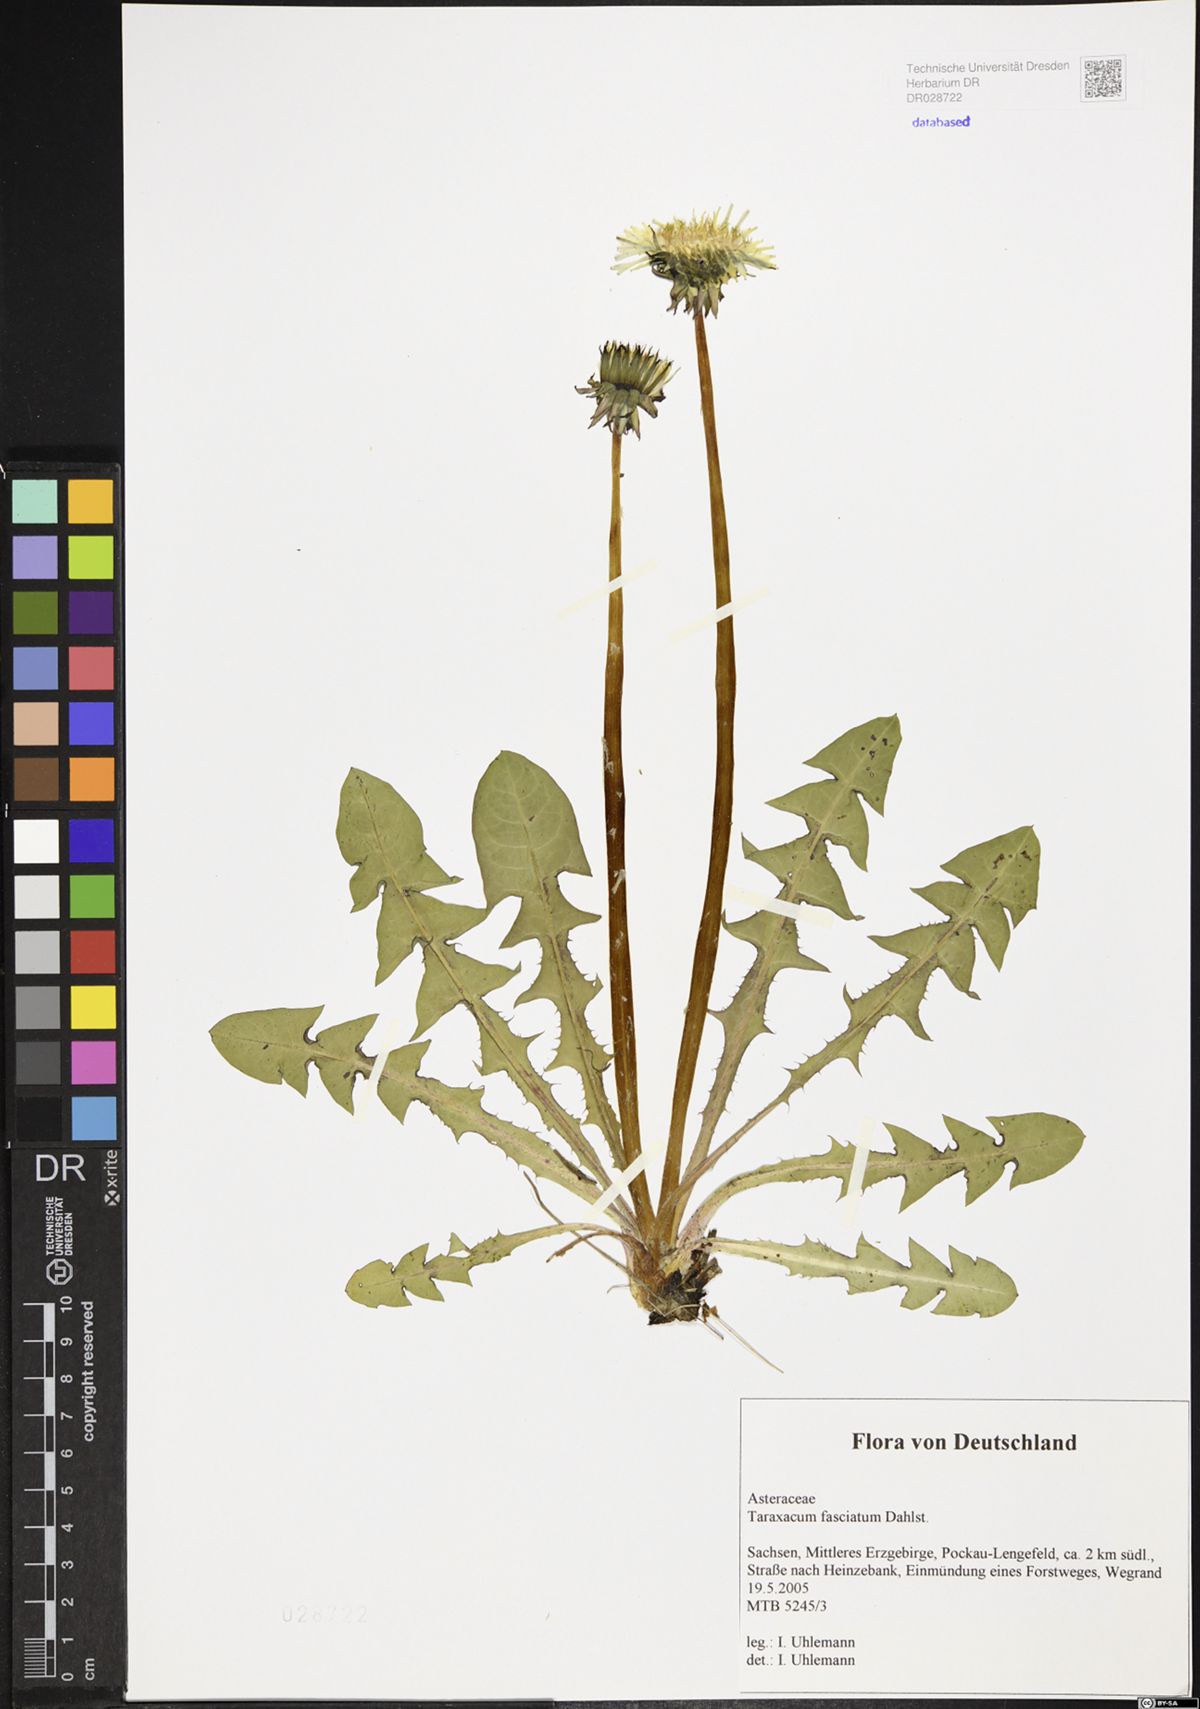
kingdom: Plantae
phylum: Tracheophyta
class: Magnoliopsida
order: Asterales
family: Asteraceae
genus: Taraxacum
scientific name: Taraxacum fasciatum
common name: Dense-bracted dandelion
